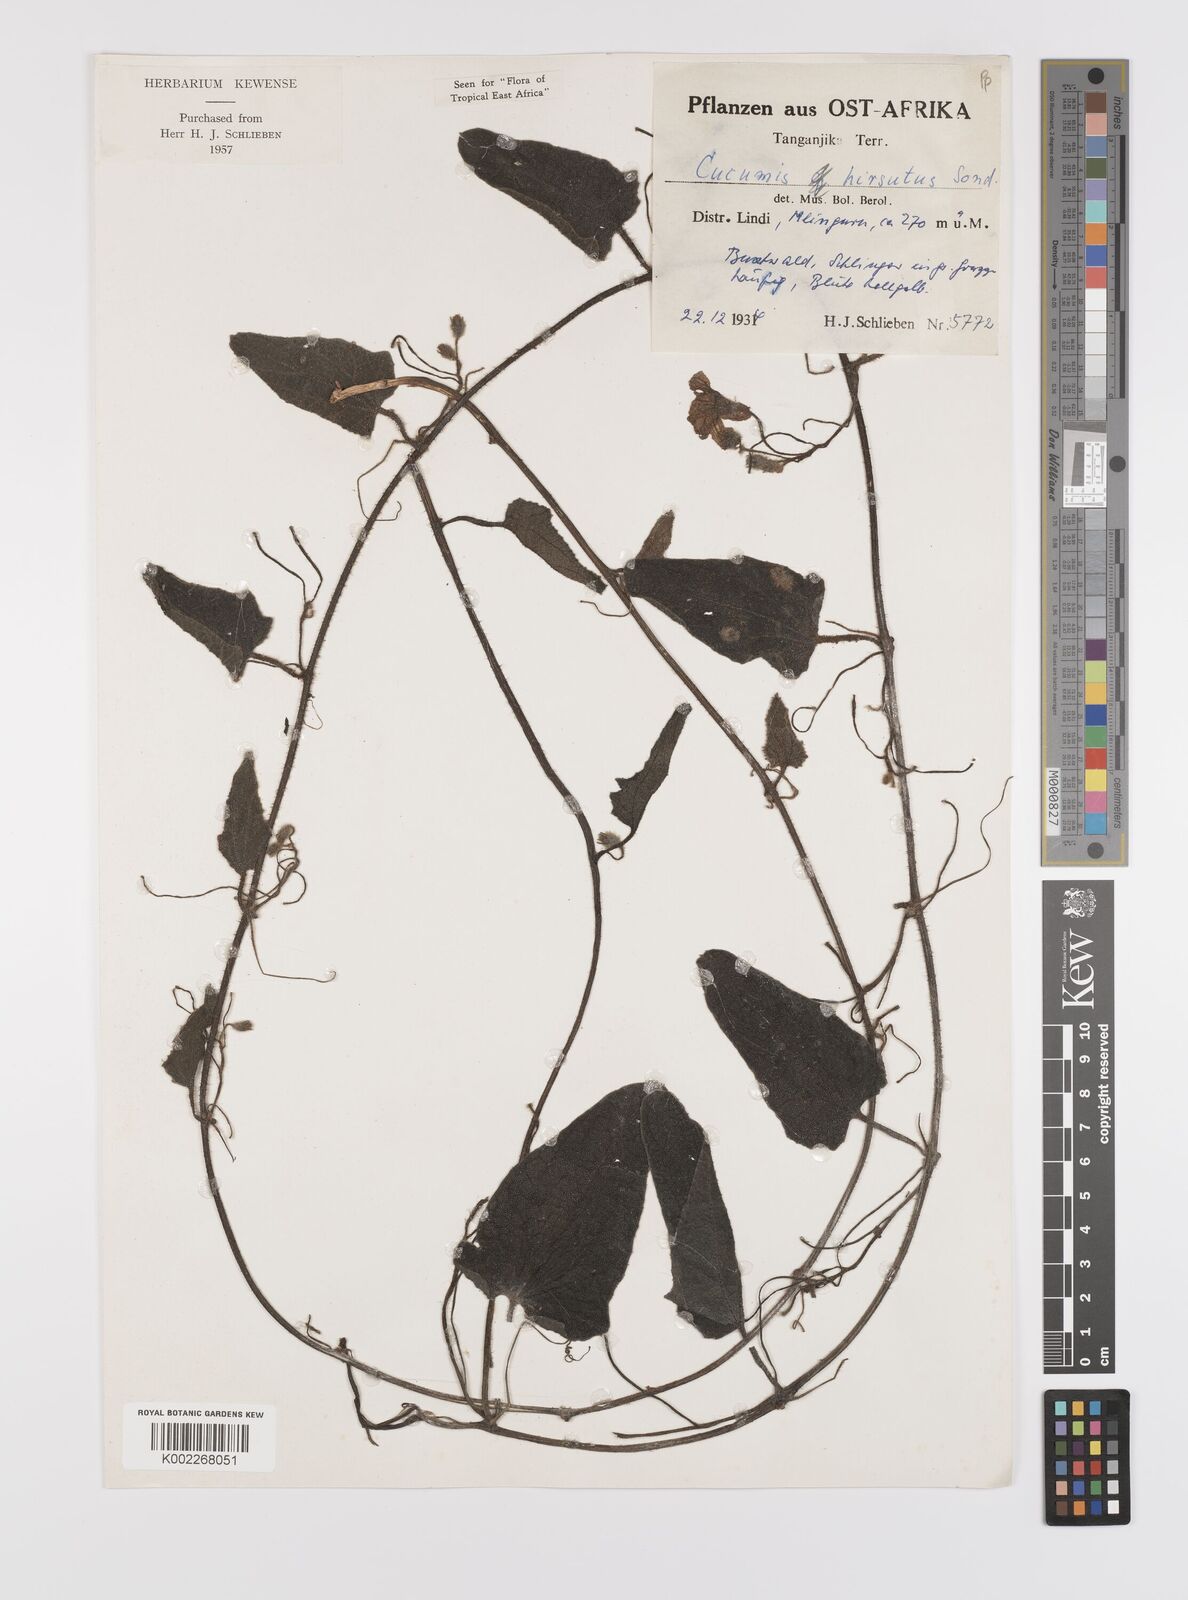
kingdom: Plantae
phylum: Tracheophyta
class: Magnoliopsida
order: Cucurbitales
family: Cucurbitaceae
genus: Cucumis
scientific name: Cucumis hirsutus
